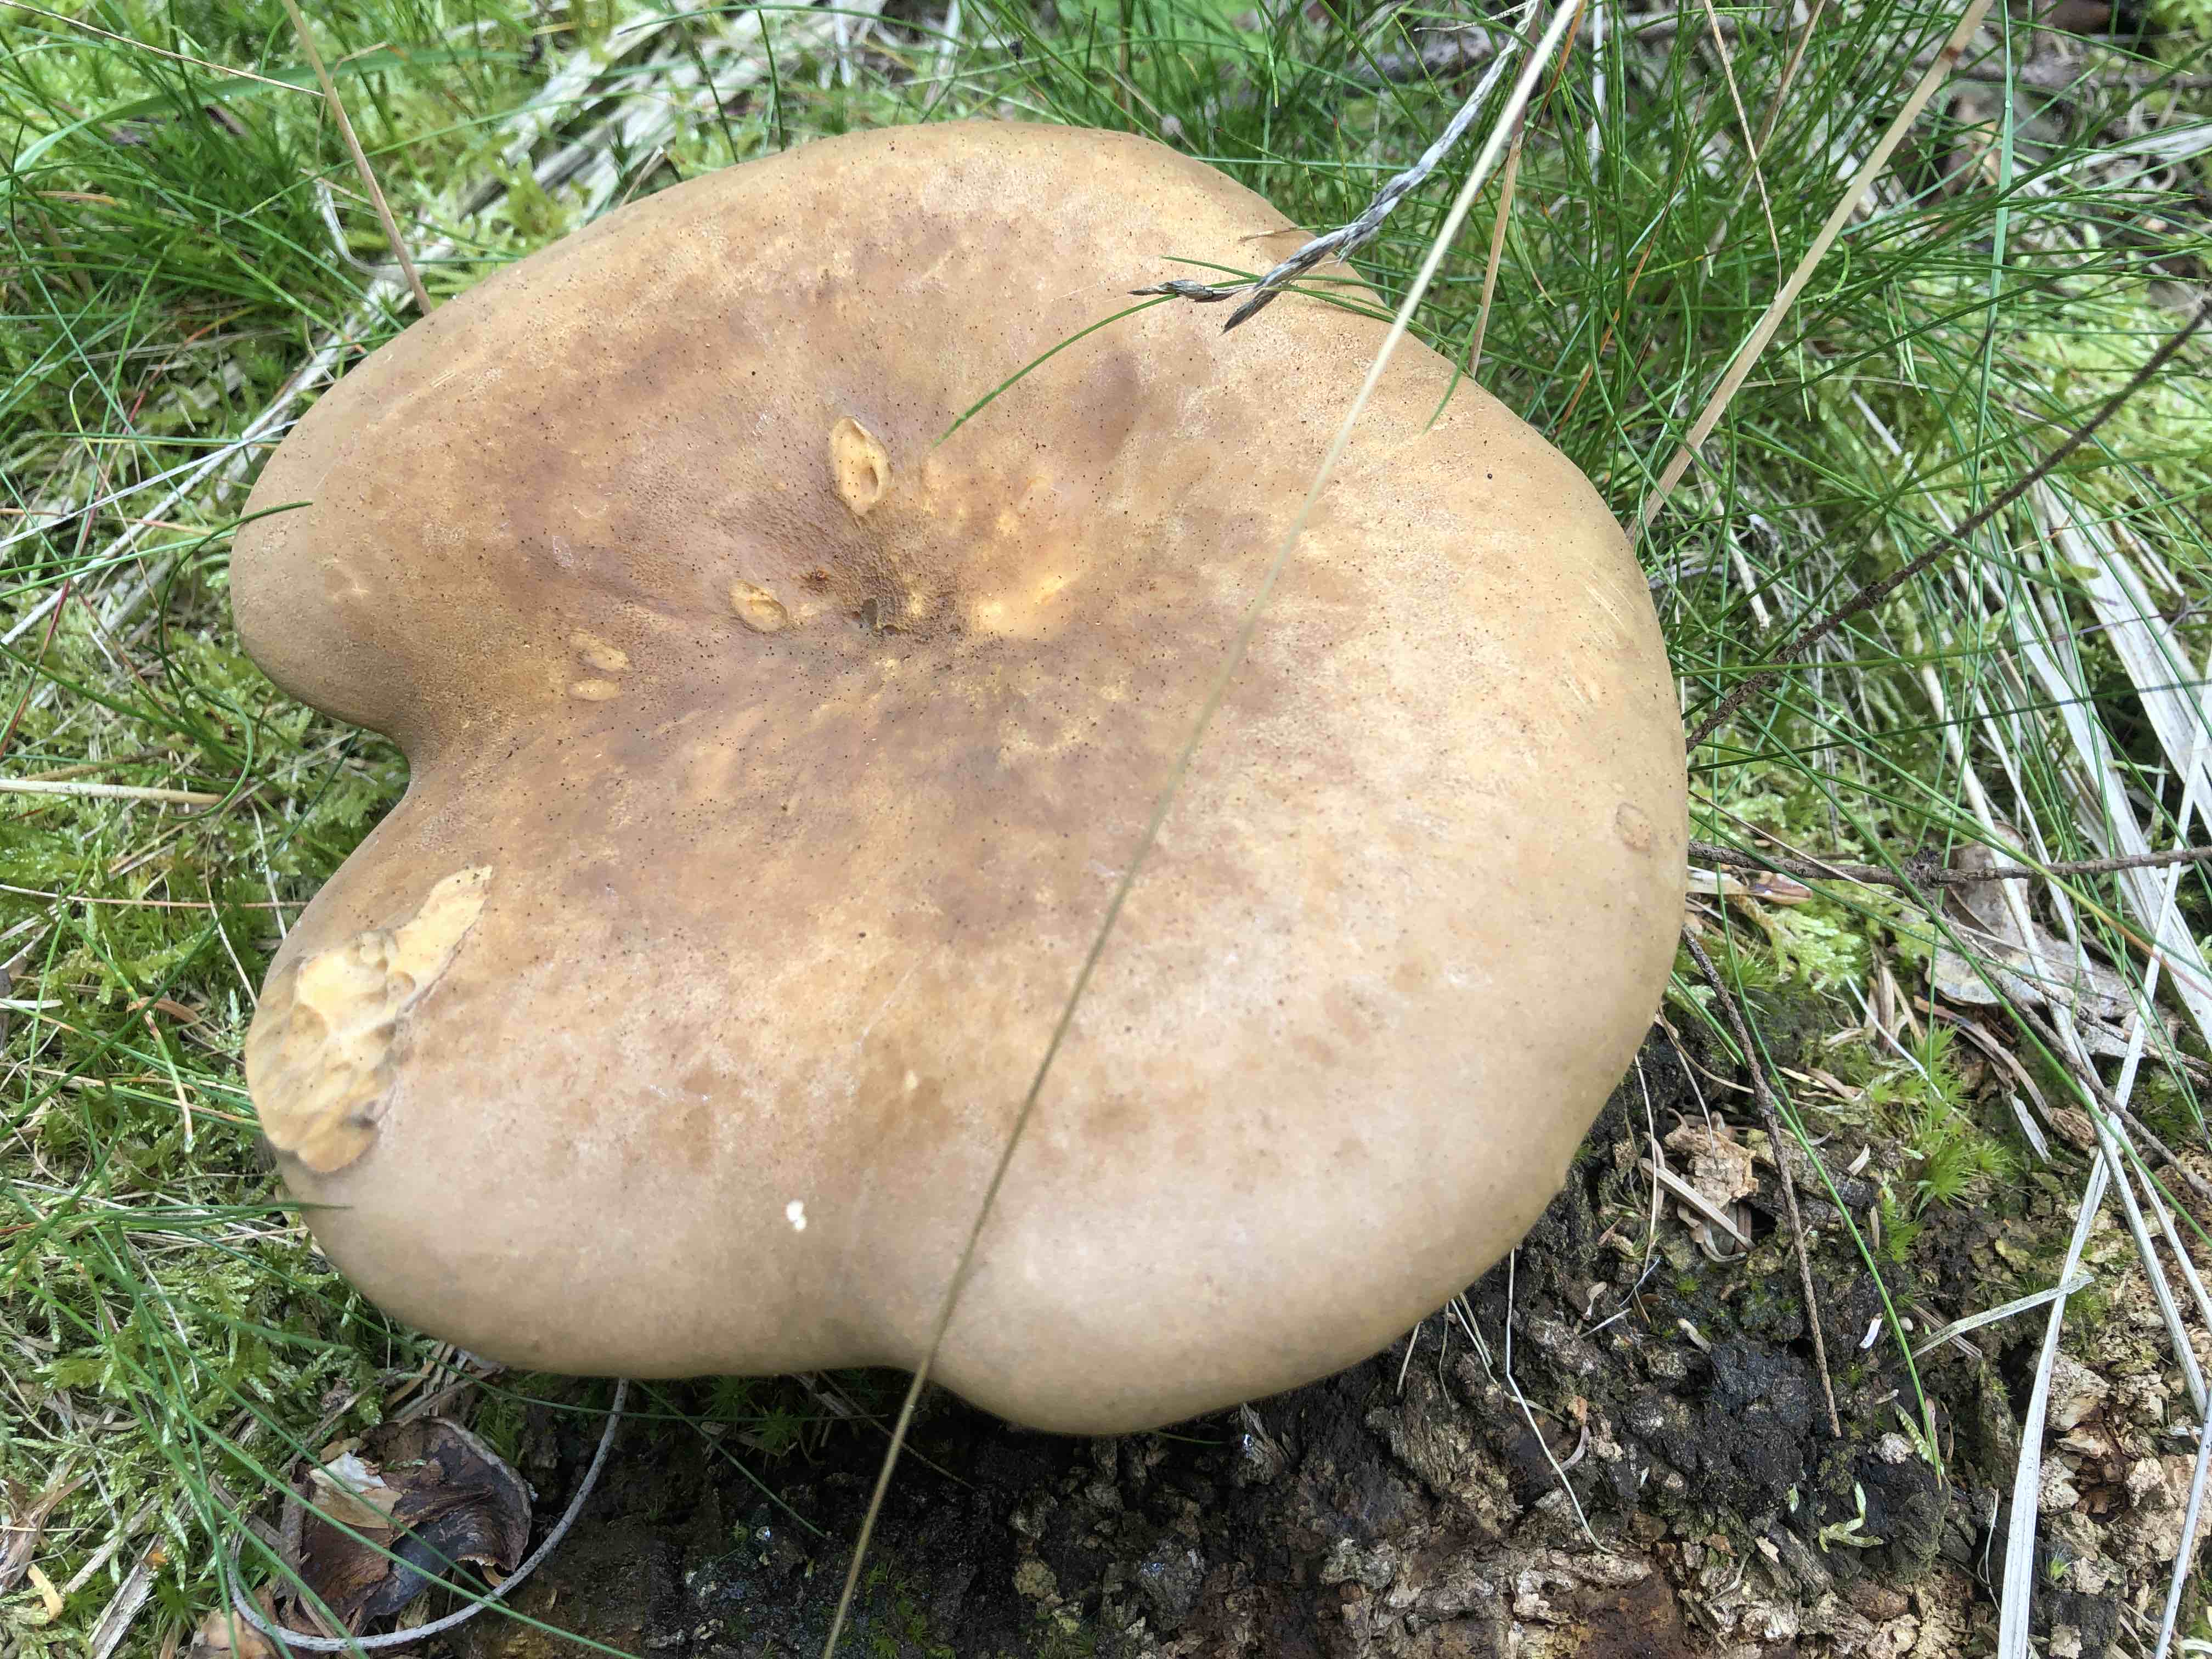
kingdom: Fungi
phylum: Basidiomycota
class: Agaricomycetes
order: Boletales
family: Tapinellaceae
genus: Tapinella
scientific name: Tapinella atrotomentosa
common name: sortfiltet viftesvamp
